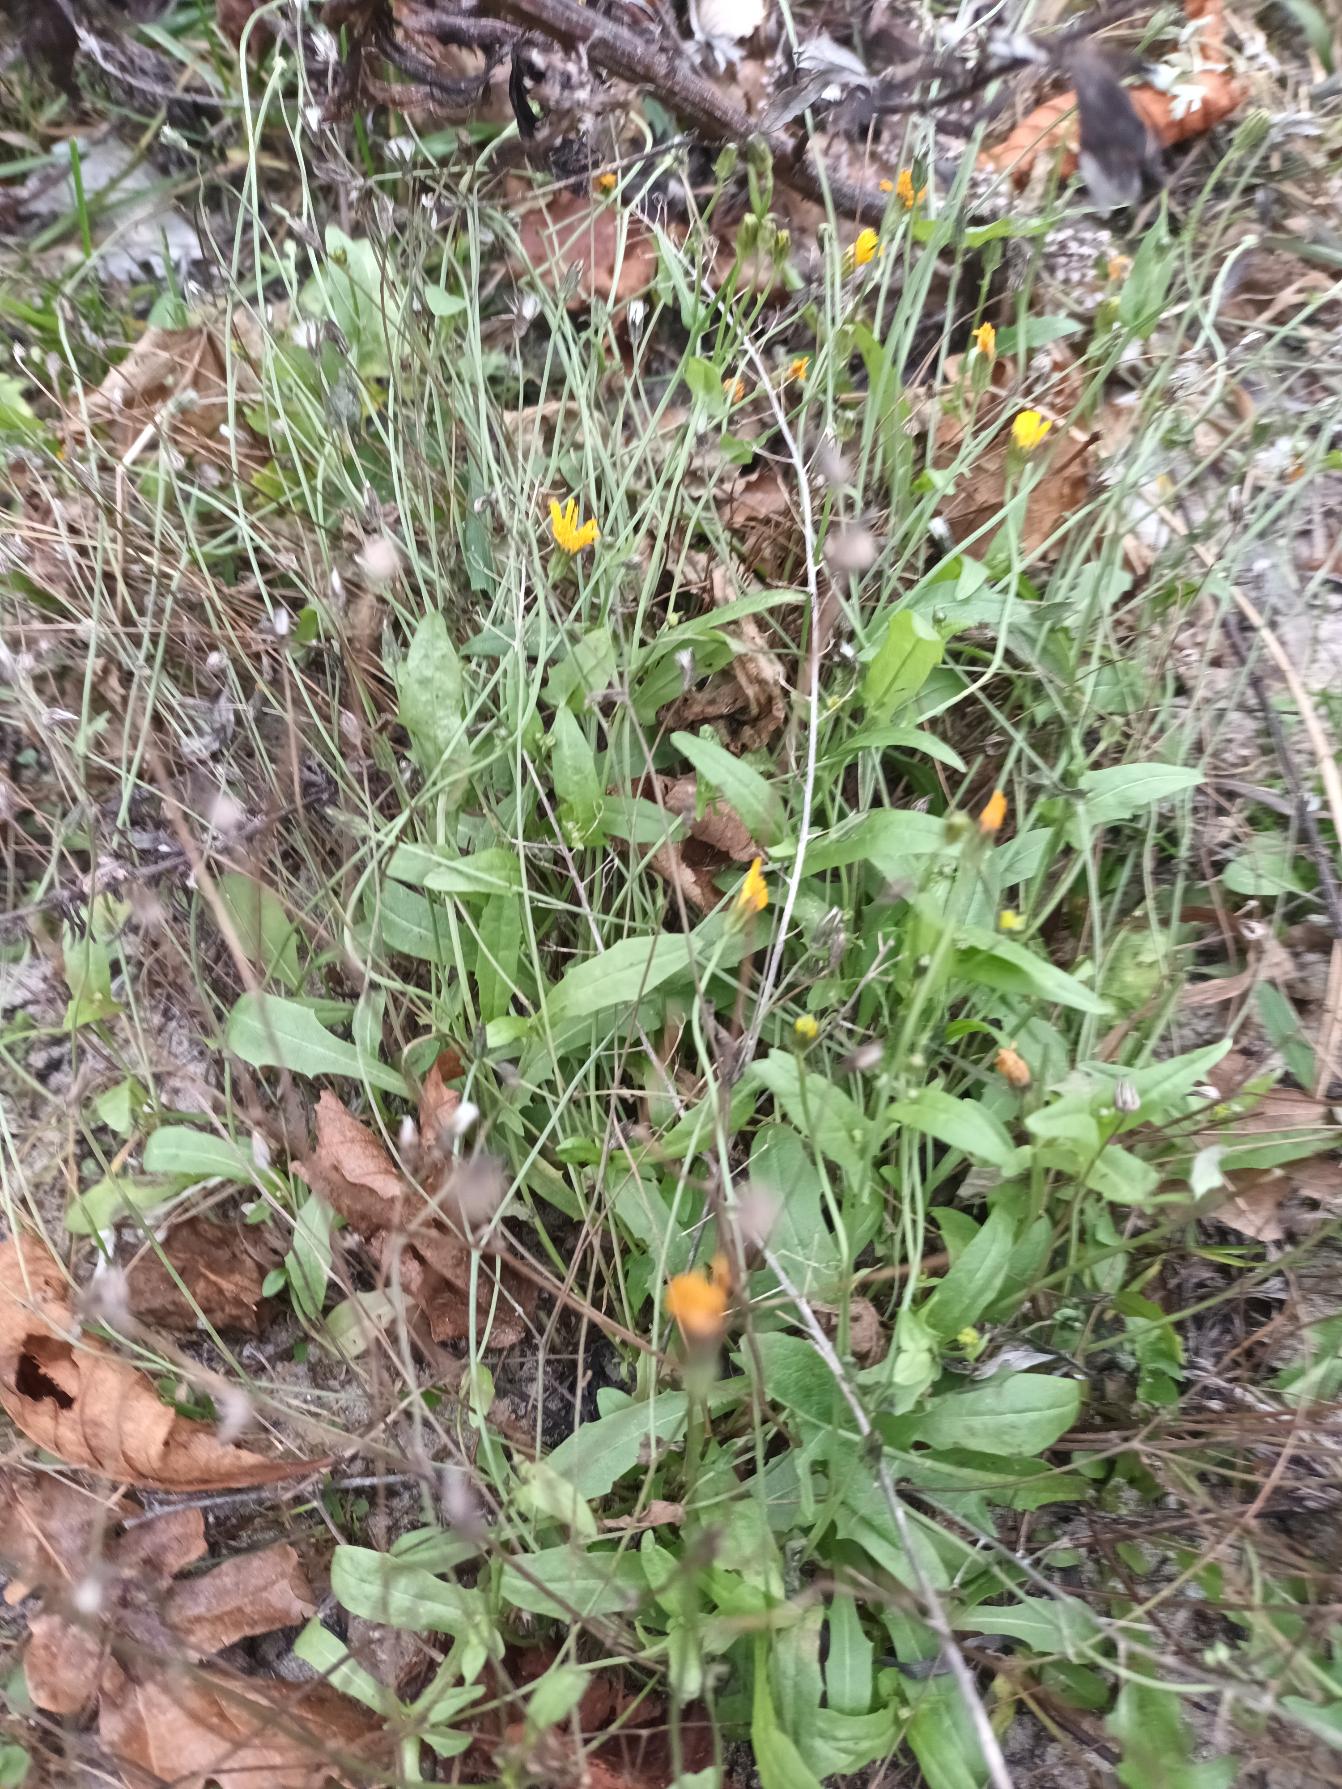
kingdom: Plantae
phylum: Tracheophyta
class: Magnoliopsida
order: Asterales
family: Asteraceae
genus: Crepis
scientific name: Crepis capillaris
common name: Grøn høgeskæg
